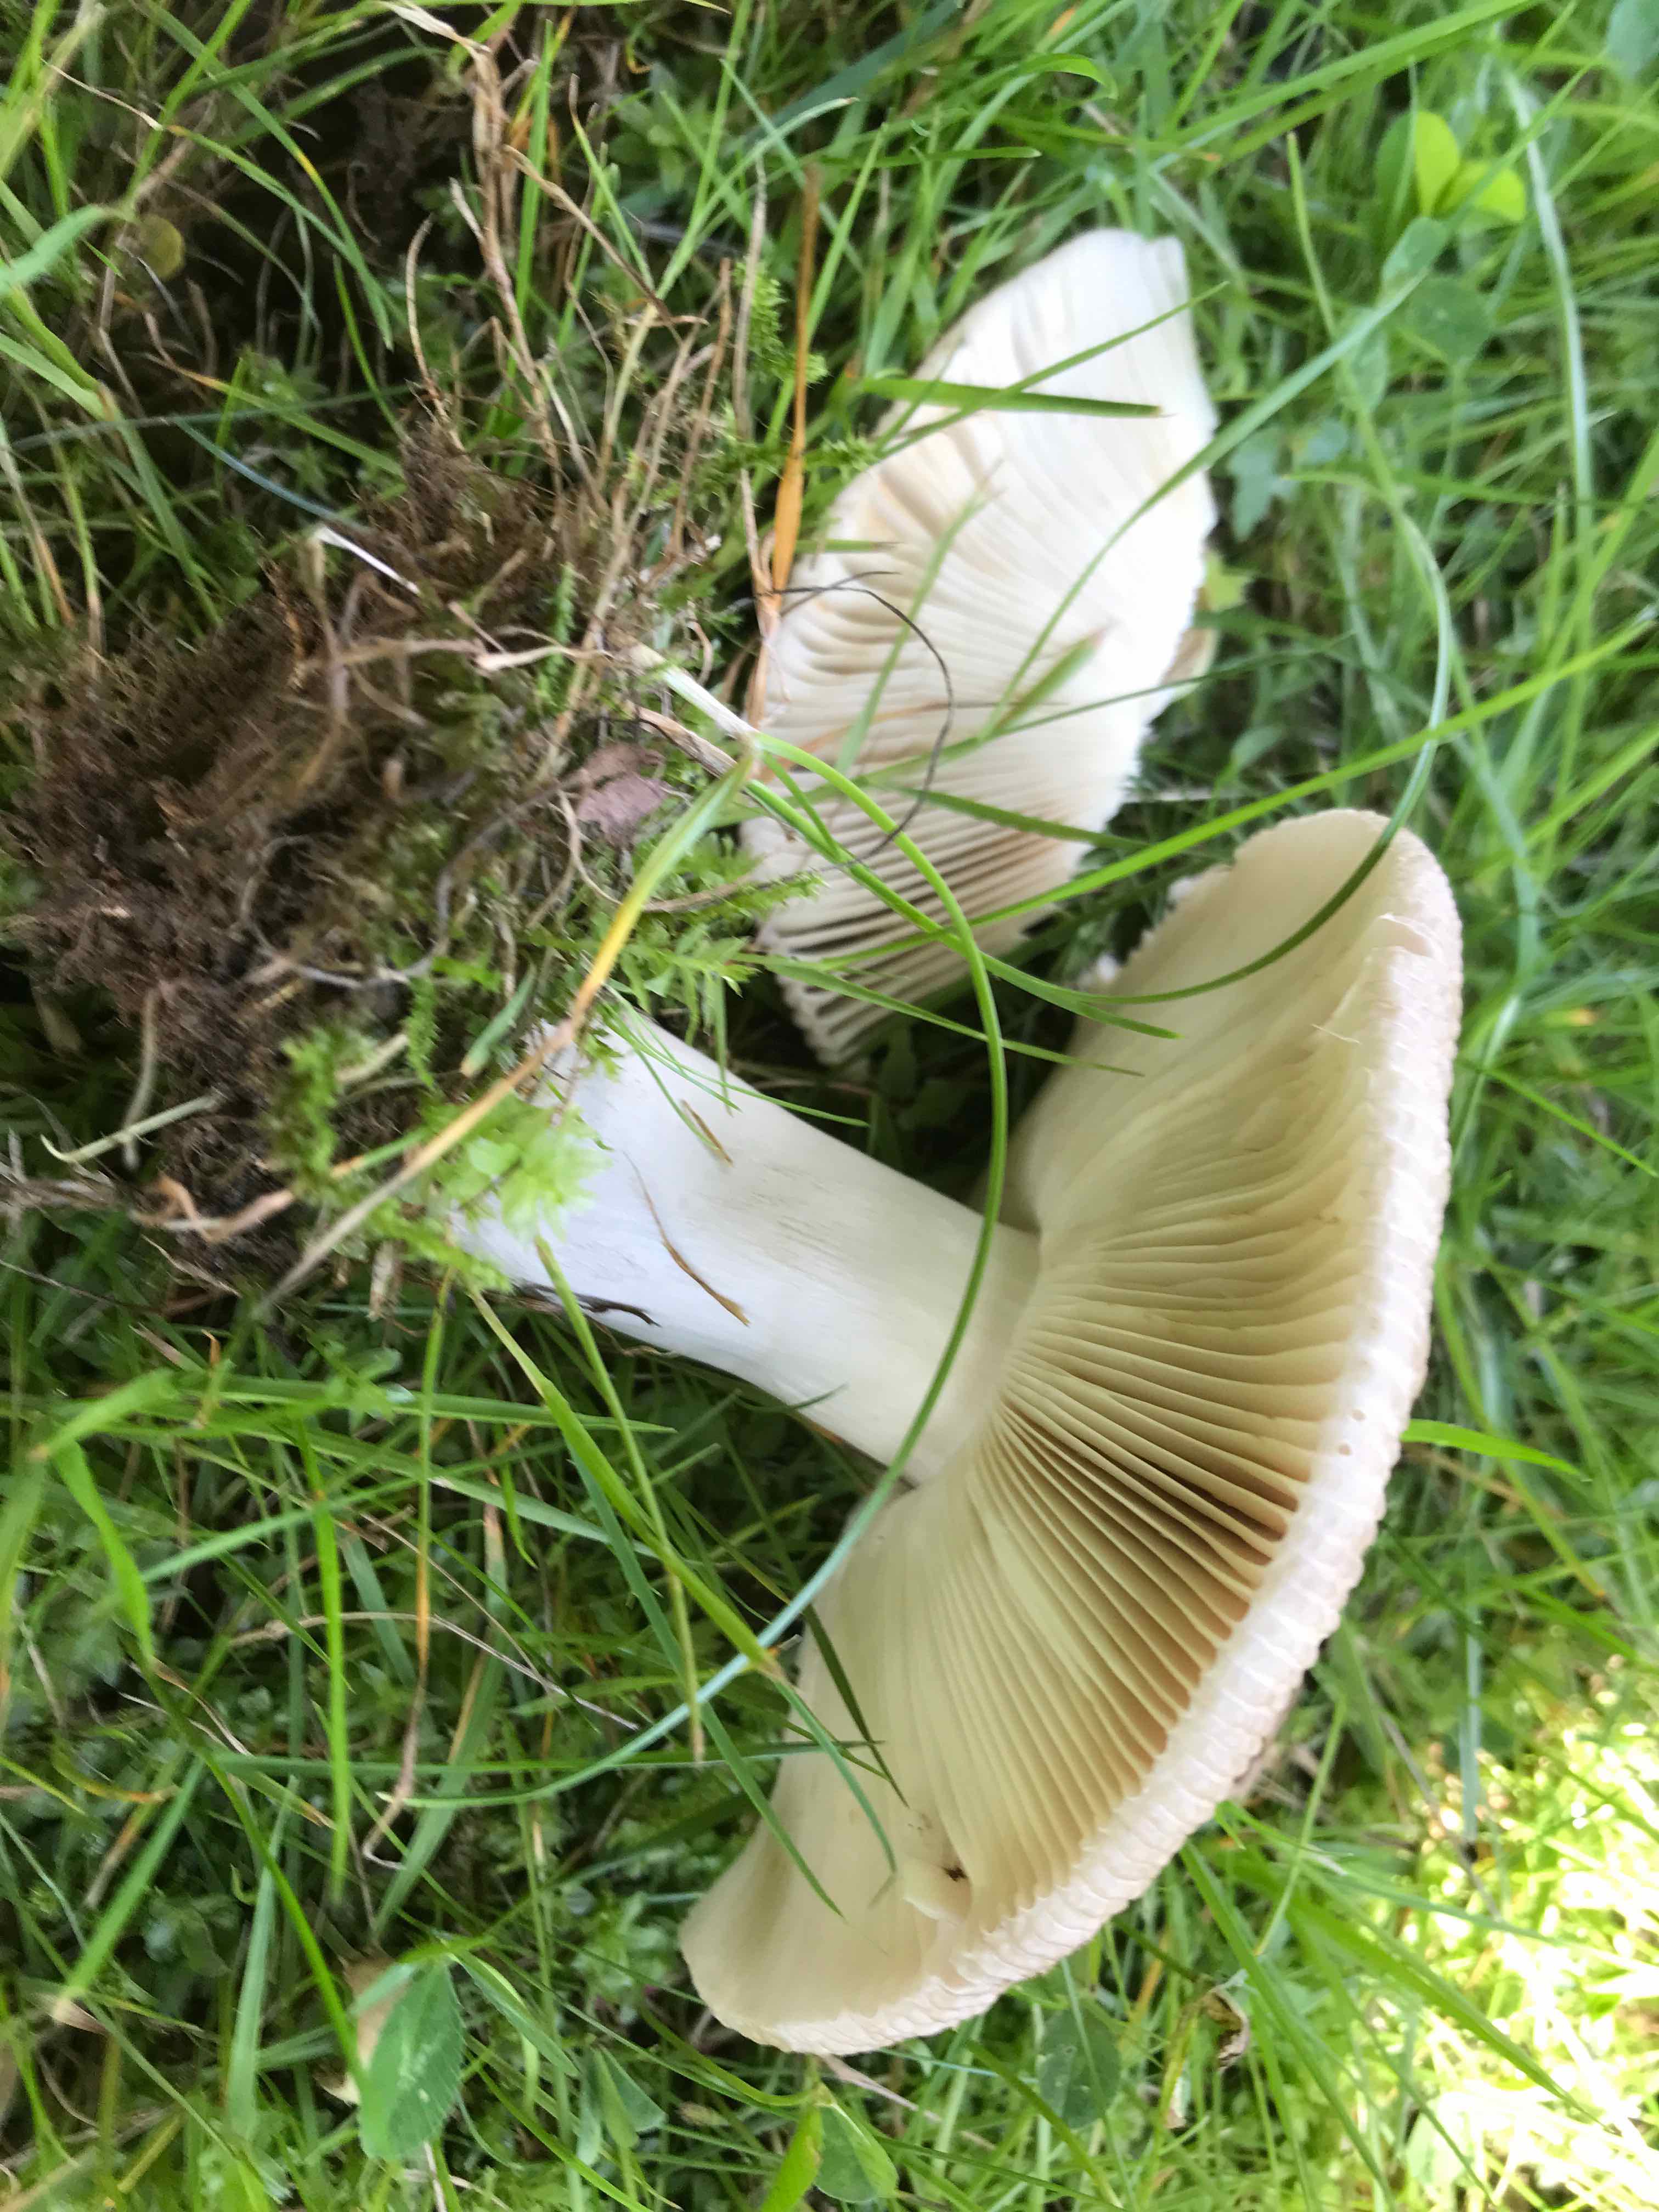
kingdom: Fungi
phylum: Basidiomycota
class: Agaricomycetes
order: Russulales
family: Russulaceae
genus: Russula
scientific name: Russula sororia
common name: brun kam-skørhat
